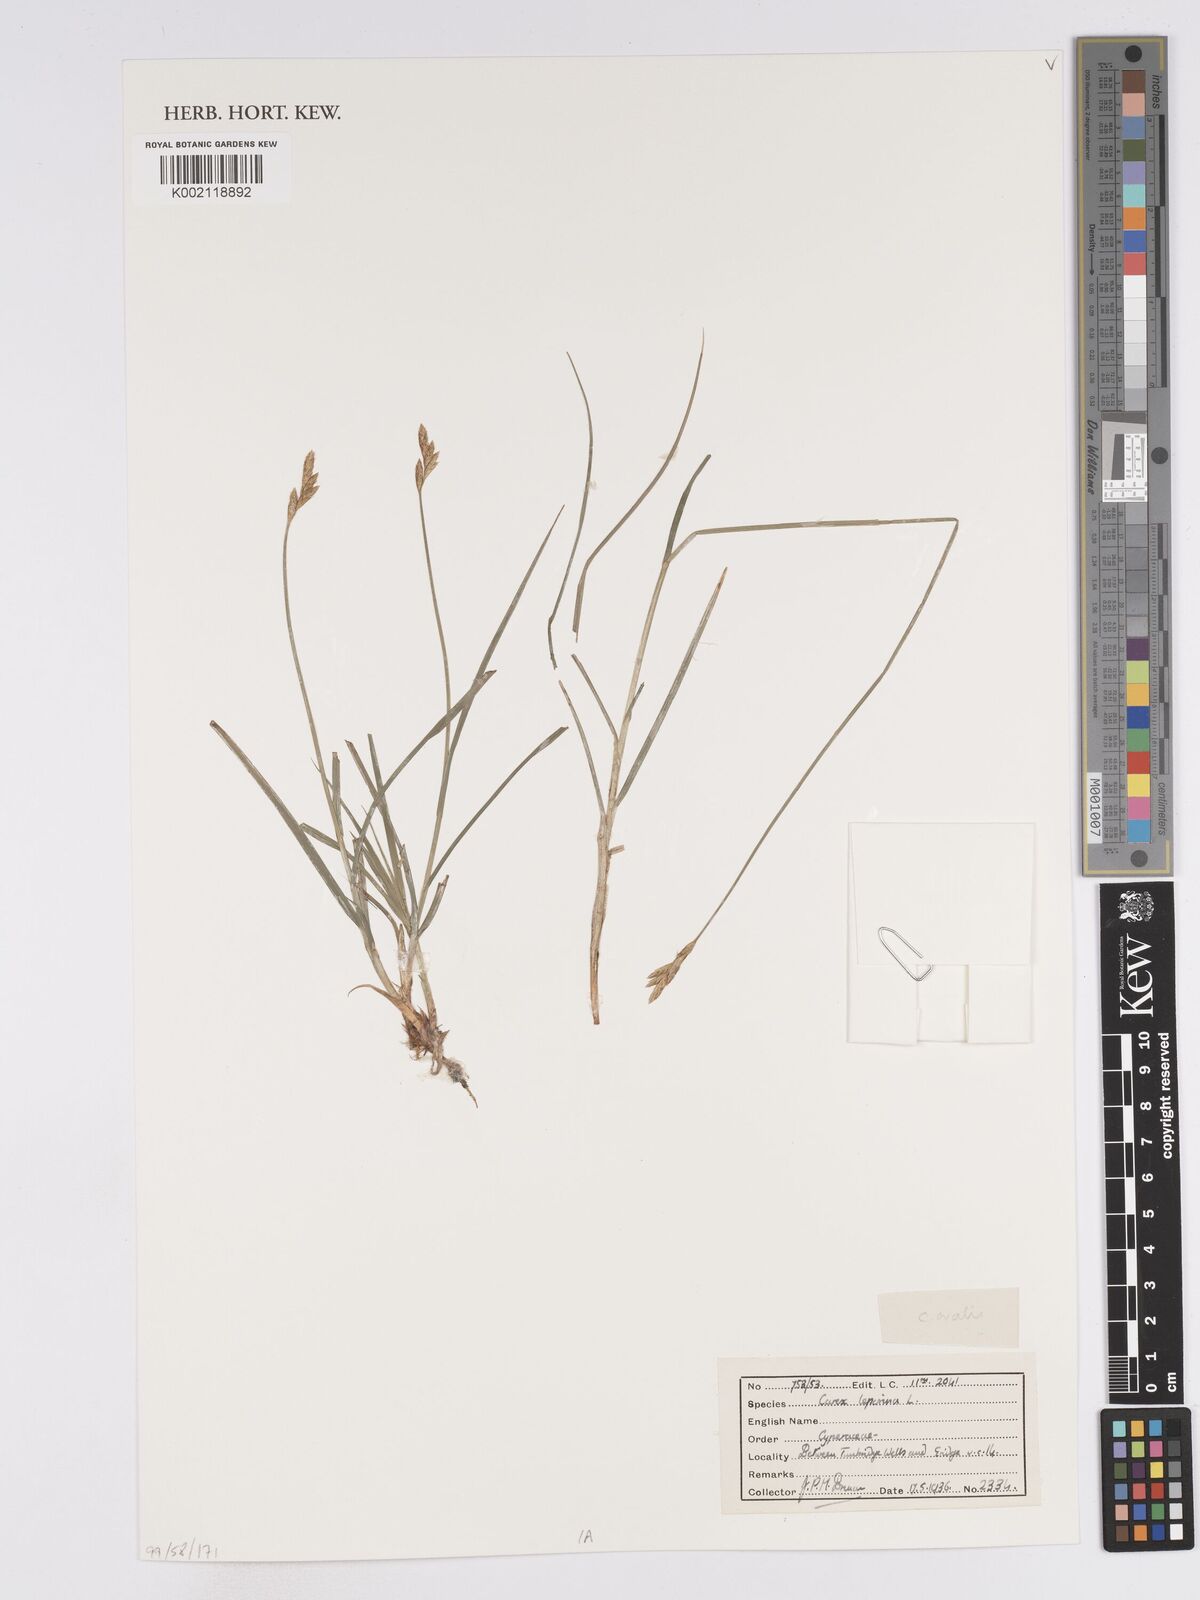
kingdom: Plantae
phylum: Tracheophyta
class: Liliopsida
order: Poales
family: Cyperaceae
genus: Carex
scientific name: Carex leporina
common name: Oval sedge
